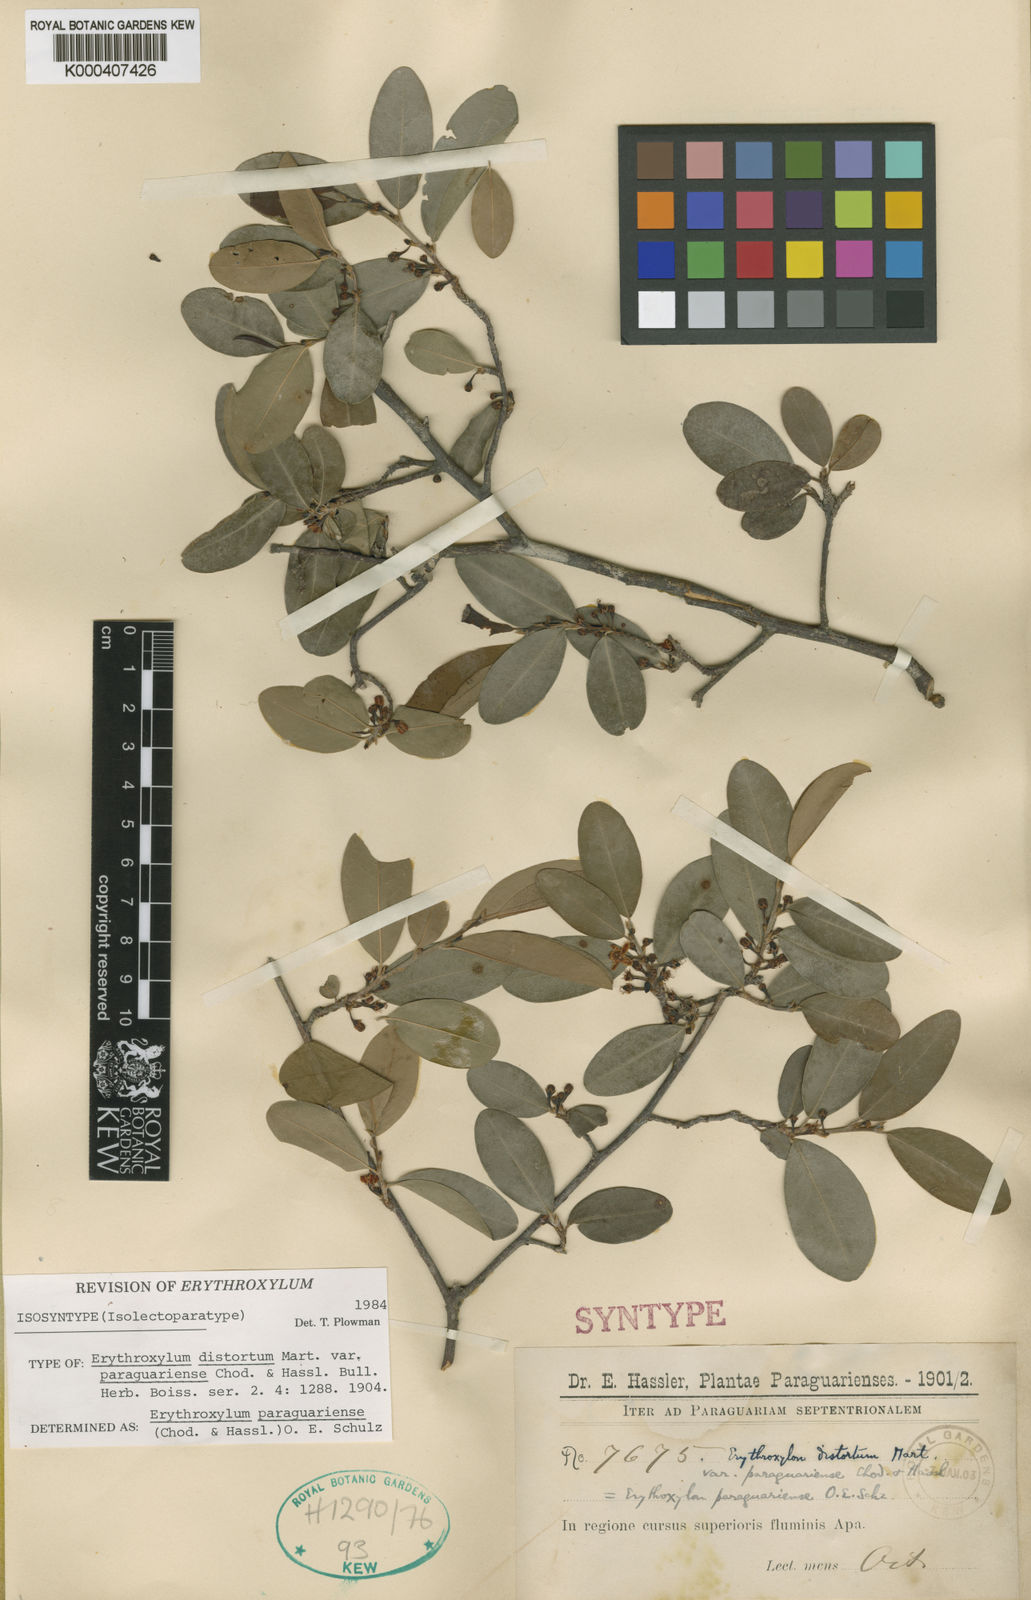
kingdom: Plantae
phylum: Tracheophyta
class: Magnoliopsida
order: Malpighiales
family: Erythroxylaceae
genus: Erythroxylum
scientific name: Erythroxylum paraguariense
